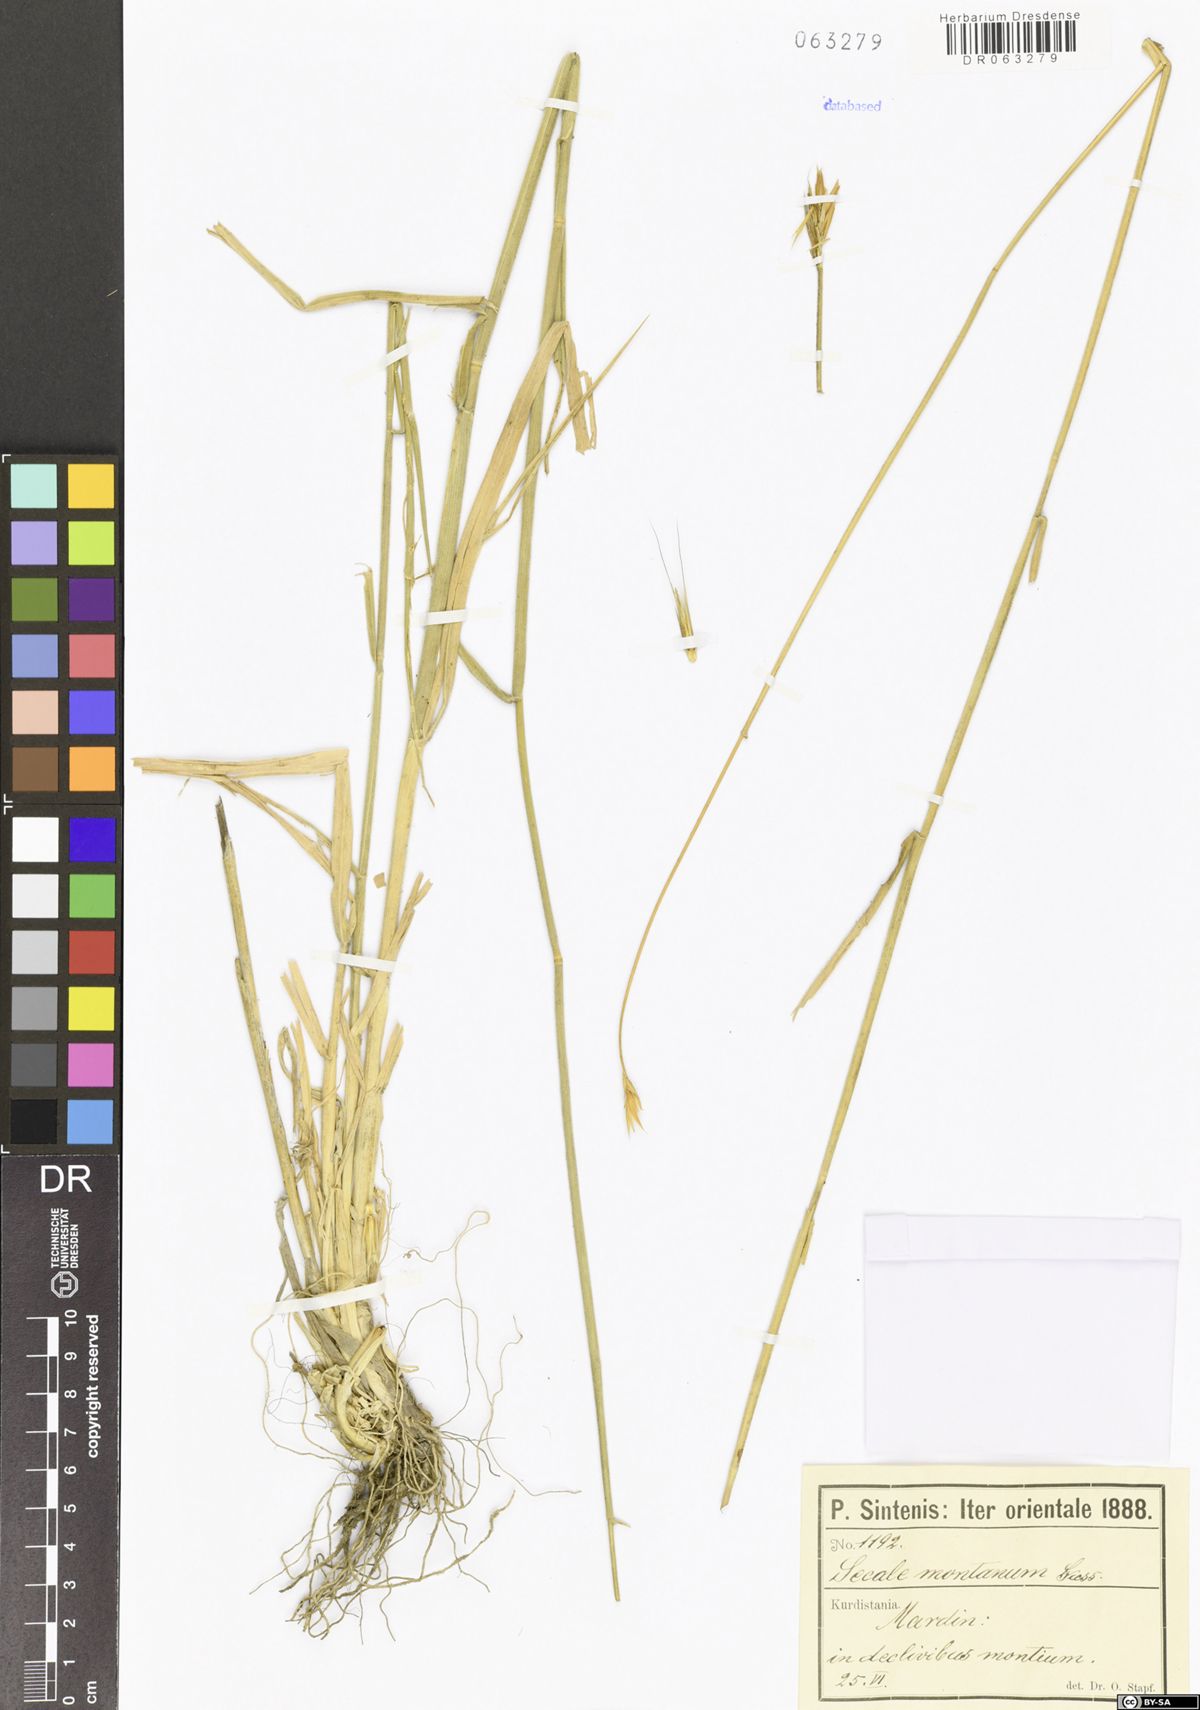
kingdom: Plantae
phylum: Tracheophyta
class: Liliopsida
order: Poales
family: Poaceae
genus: Secale
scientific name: Secale strictum
